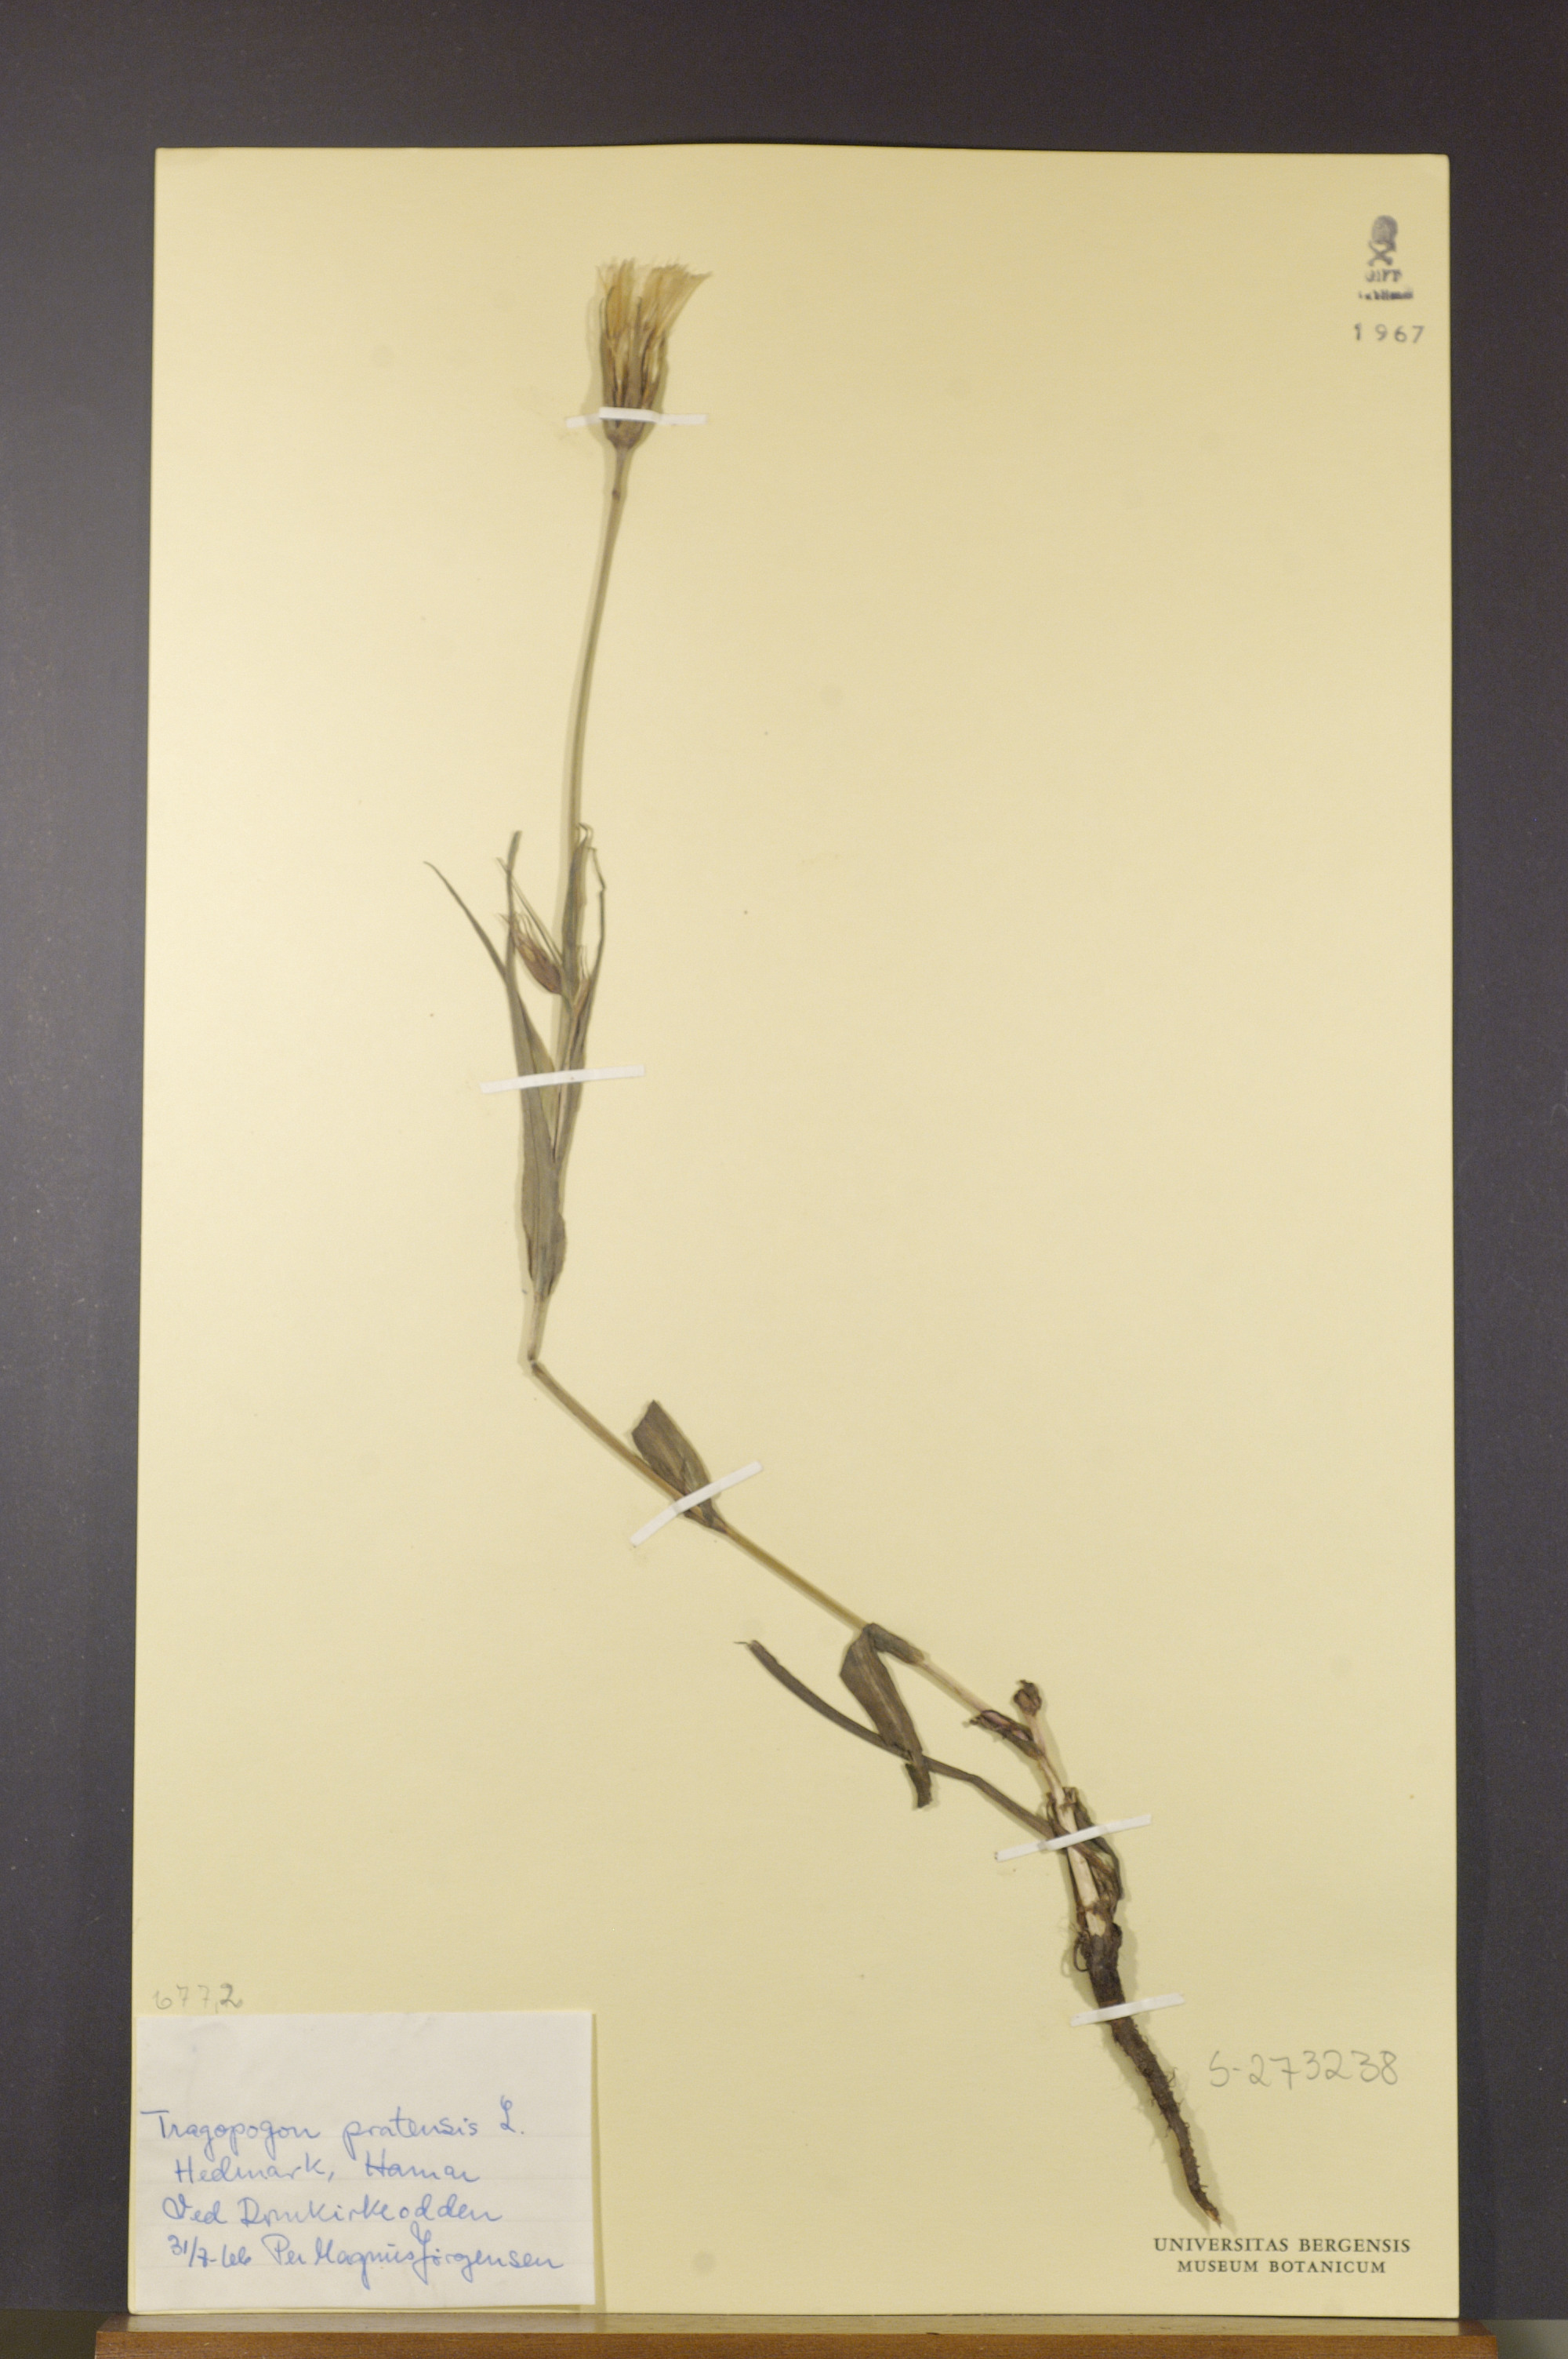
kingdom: Plantae
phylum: Tracheophyta
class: Magnoliopsida
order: Asterales
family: Asteraceae
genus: Tragopogon
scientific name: Tragopogon pratensis
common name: Goat's-beard
